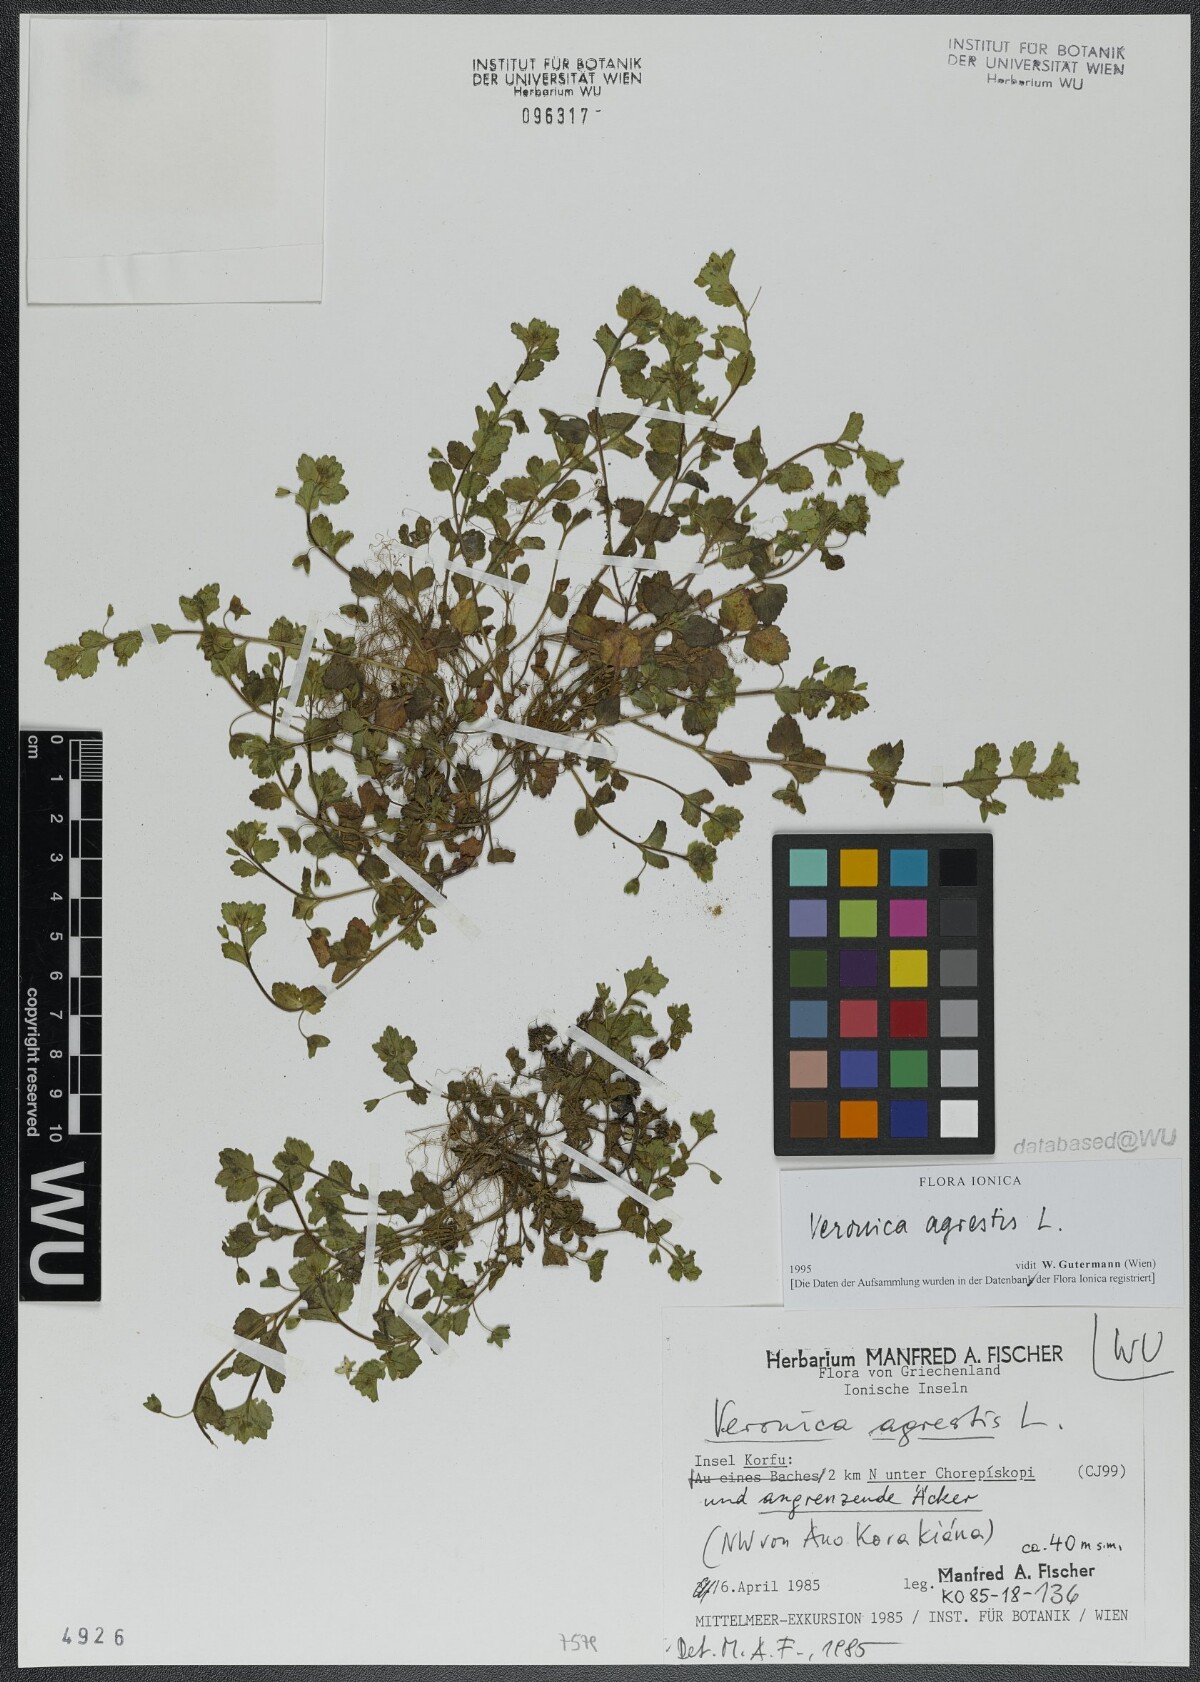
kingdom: Plantae
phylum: Tracheophyta
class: Magnoliopsida
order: Lamiales
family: Plantaginaceae
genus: Veronica
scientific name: Veronica agrestis
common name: Green field-speedwell
